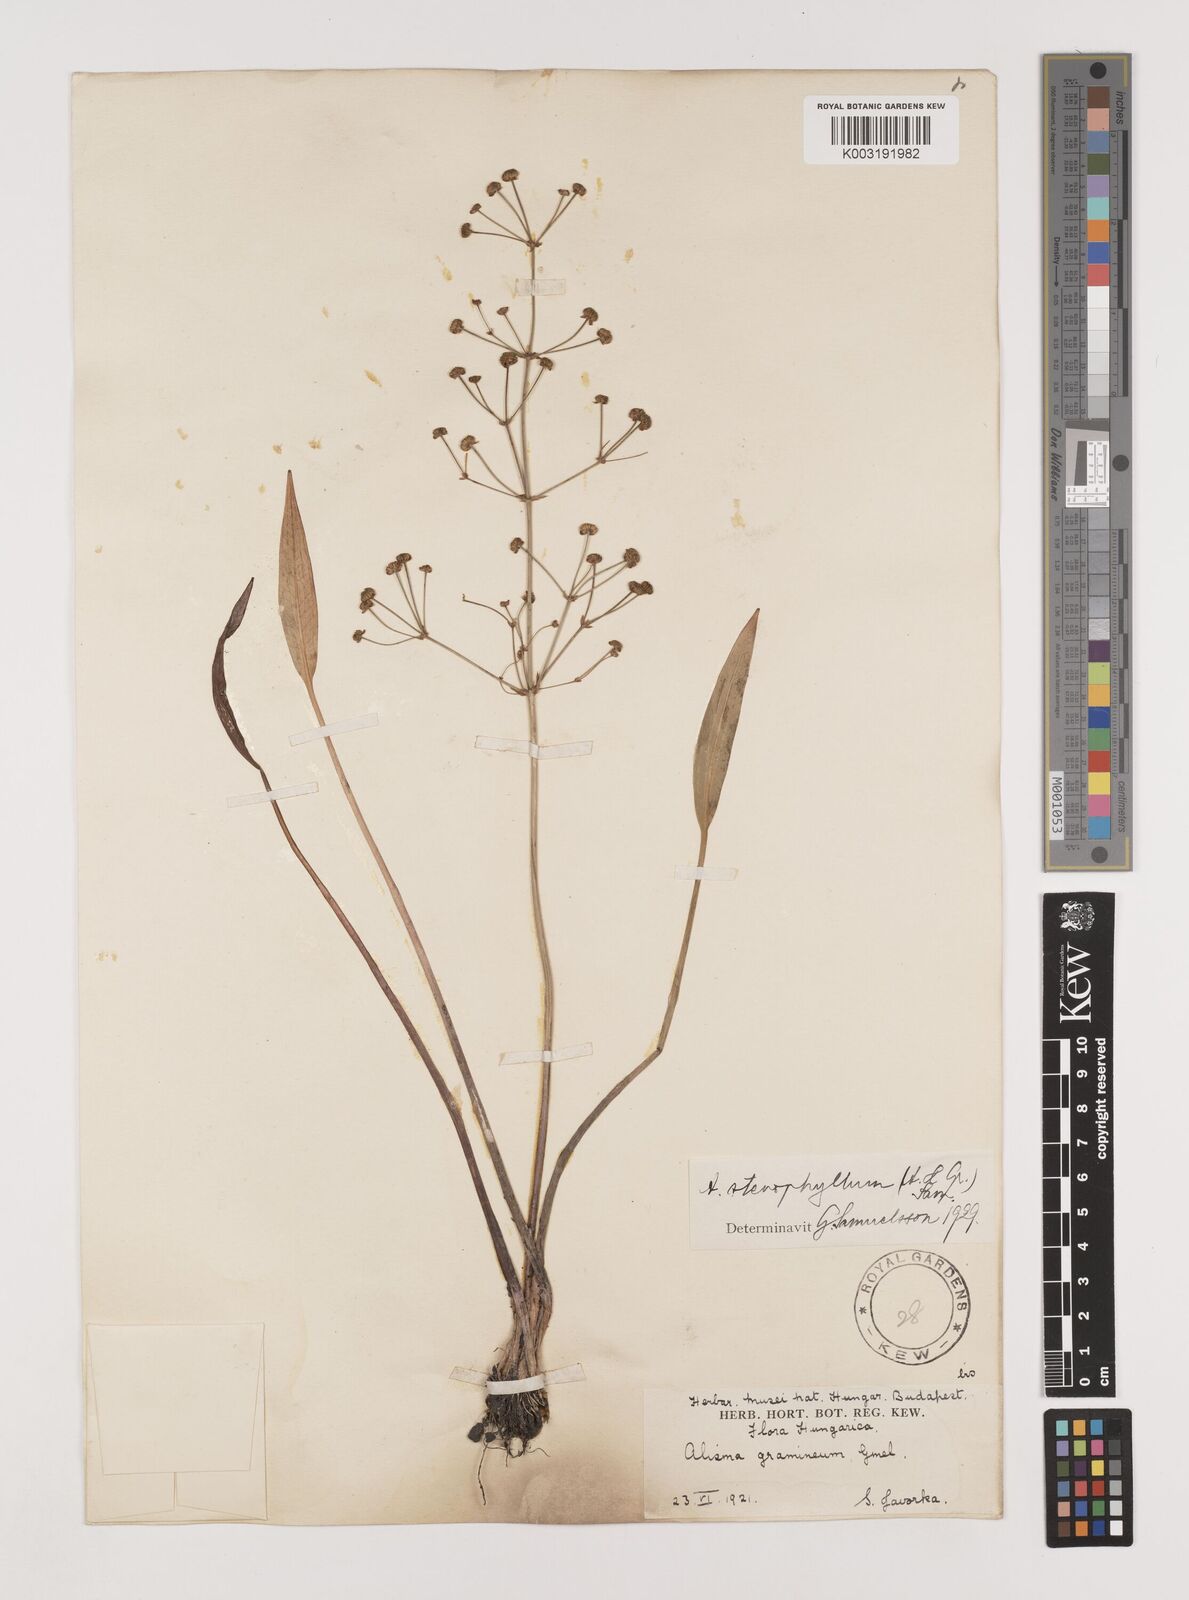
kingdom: Plantae
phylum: Tracheophyta
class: Liliopsida
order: Alismatales
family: Alismataceae
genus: Alisma
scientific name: Alisma lanceolatum
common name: Narrow-leaved water-plantain
